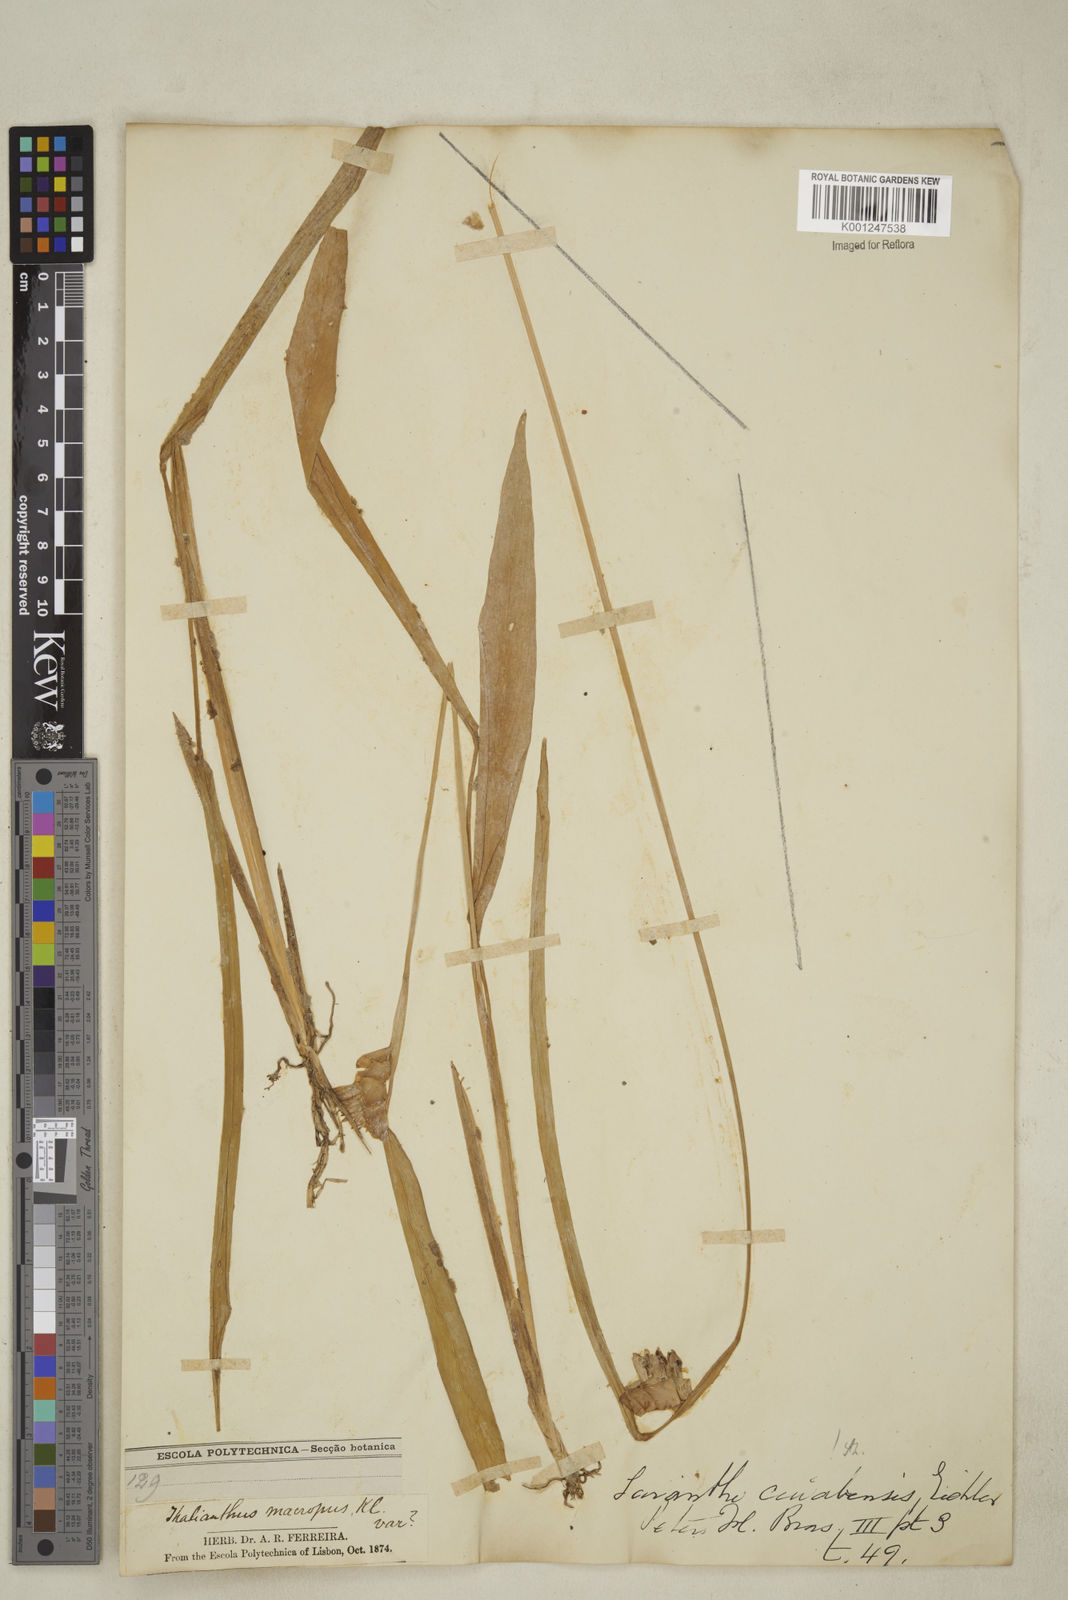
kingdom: Plantae
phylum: Tracheophyta
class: Liliopsida
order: Zingiberales
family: Marantaceae
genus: Myrosma
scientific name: Myrosma cannifolia
